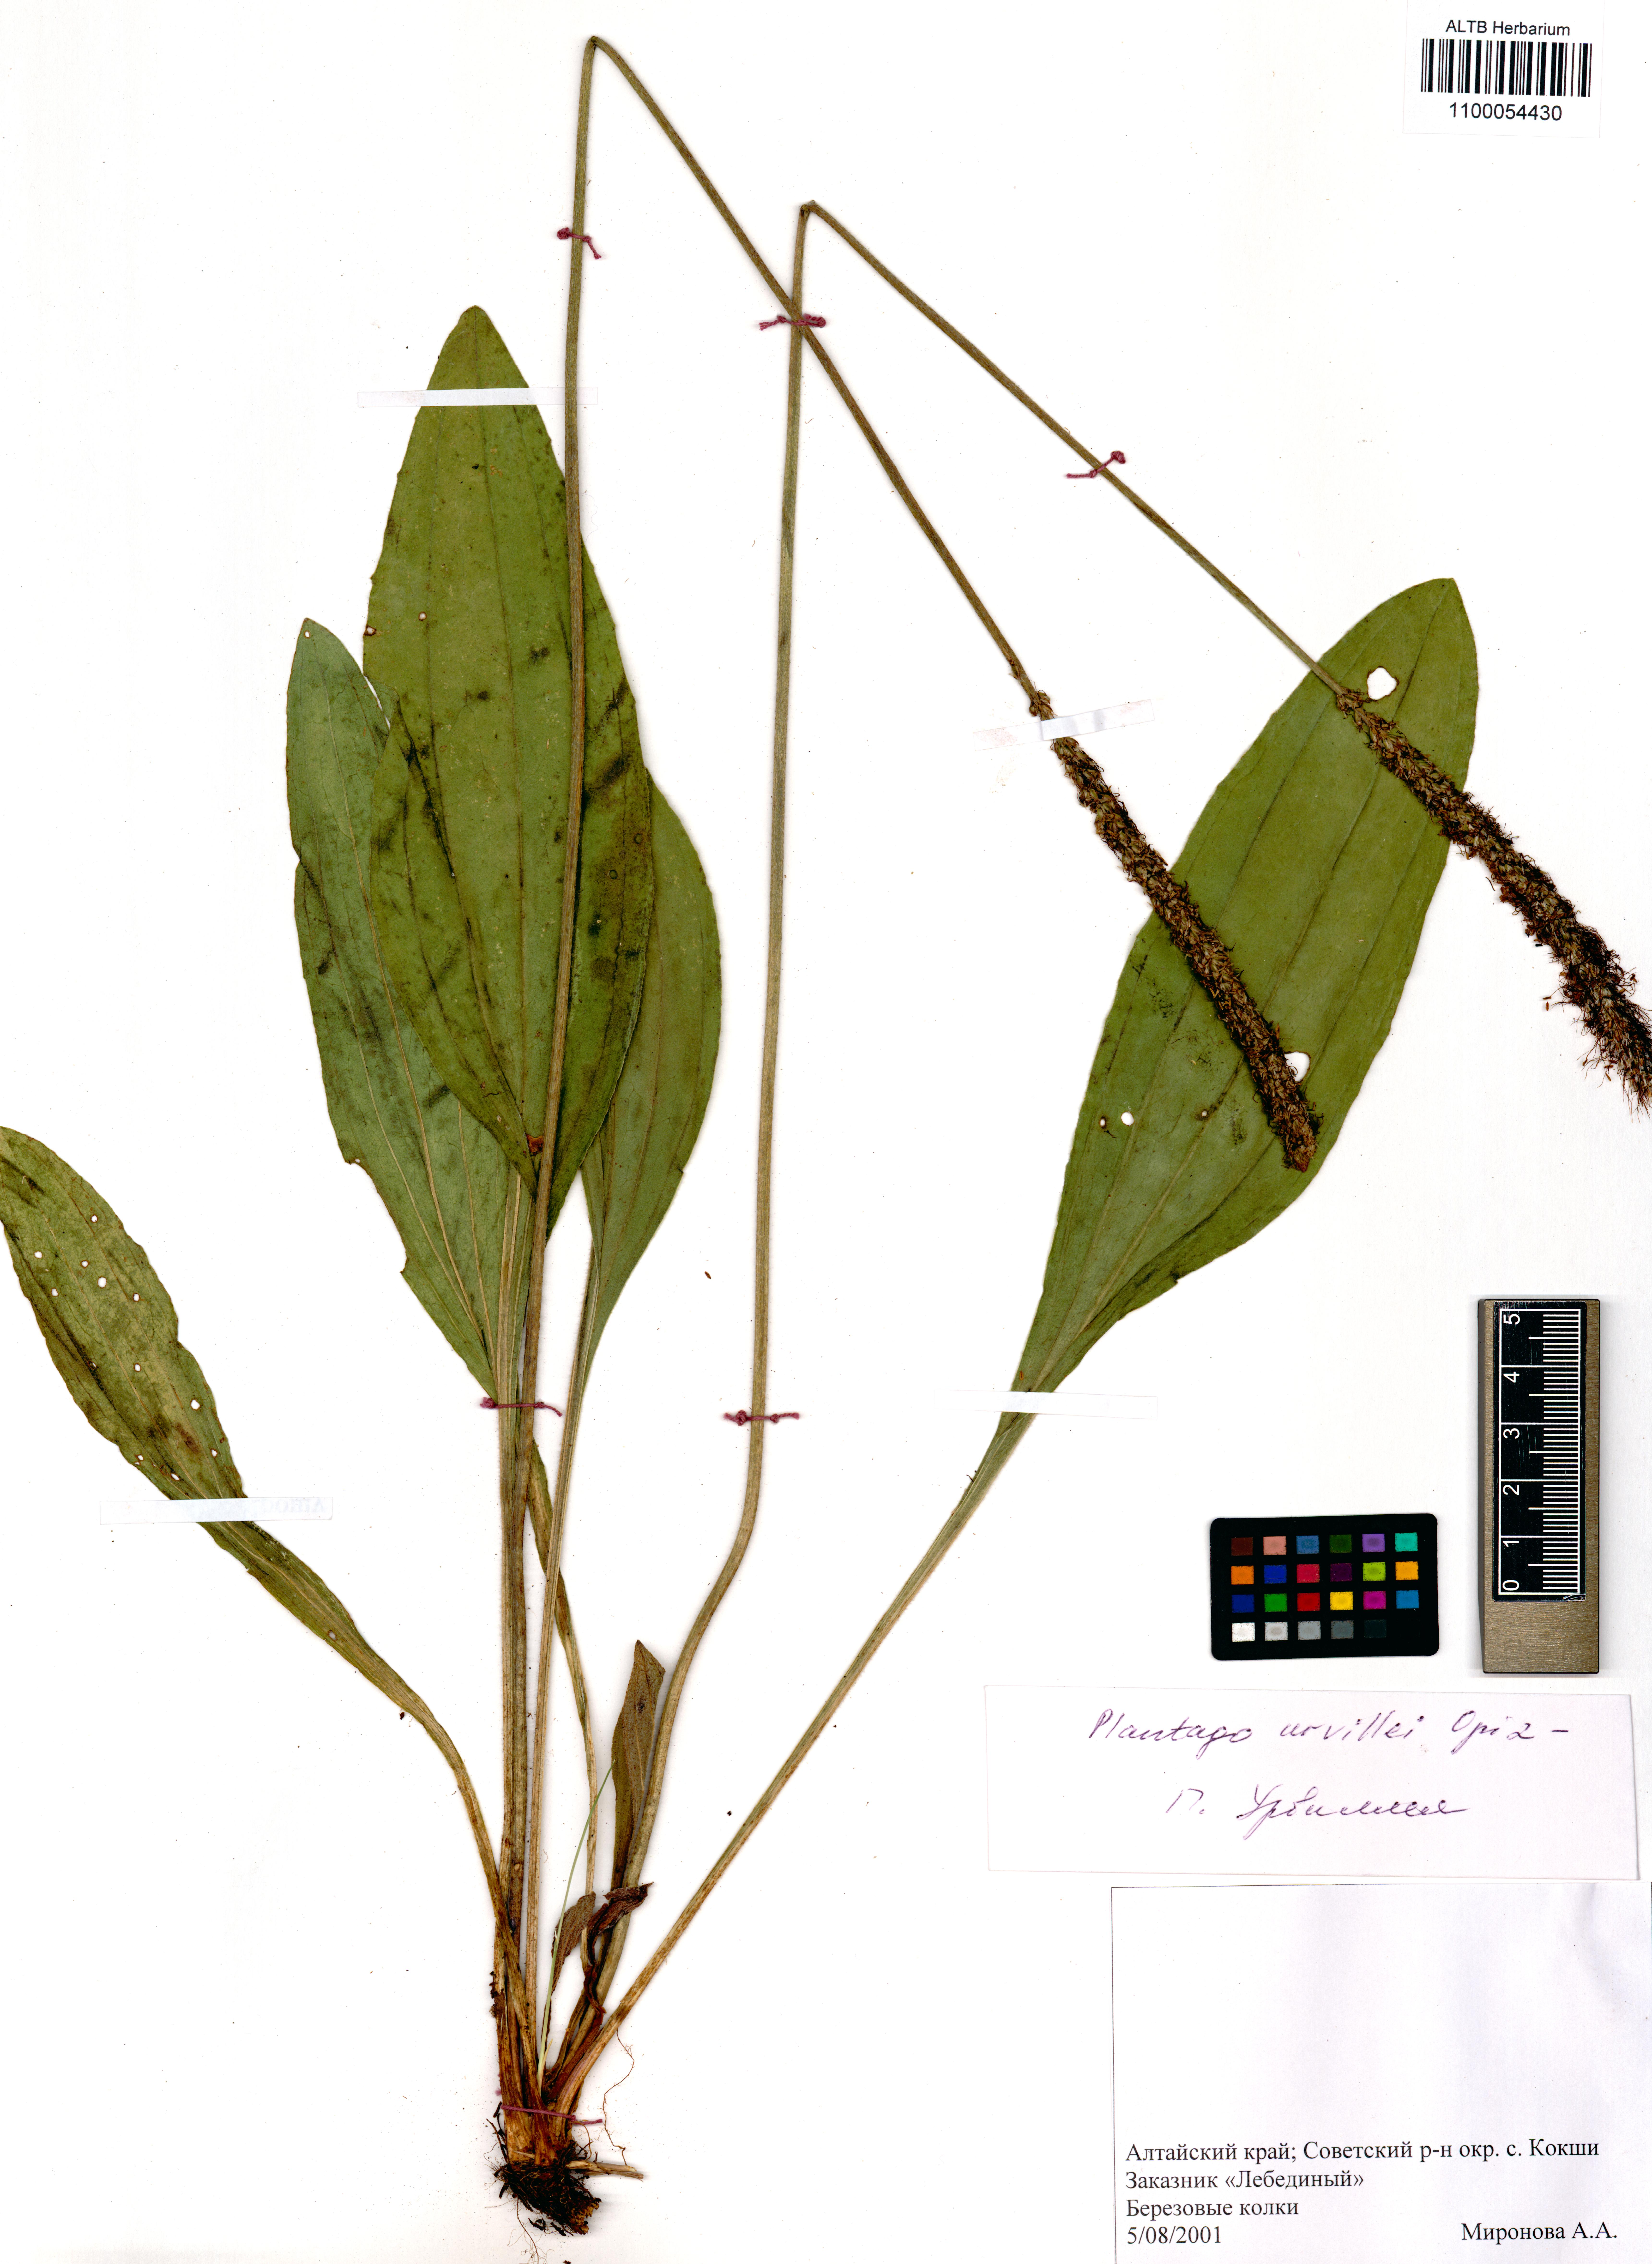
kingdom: Plantae
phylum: Tracheophyta
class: Magnoliopsida
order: Lamiales
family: Plantaginaceae
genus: Plantago
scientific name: Plantago urvillei
